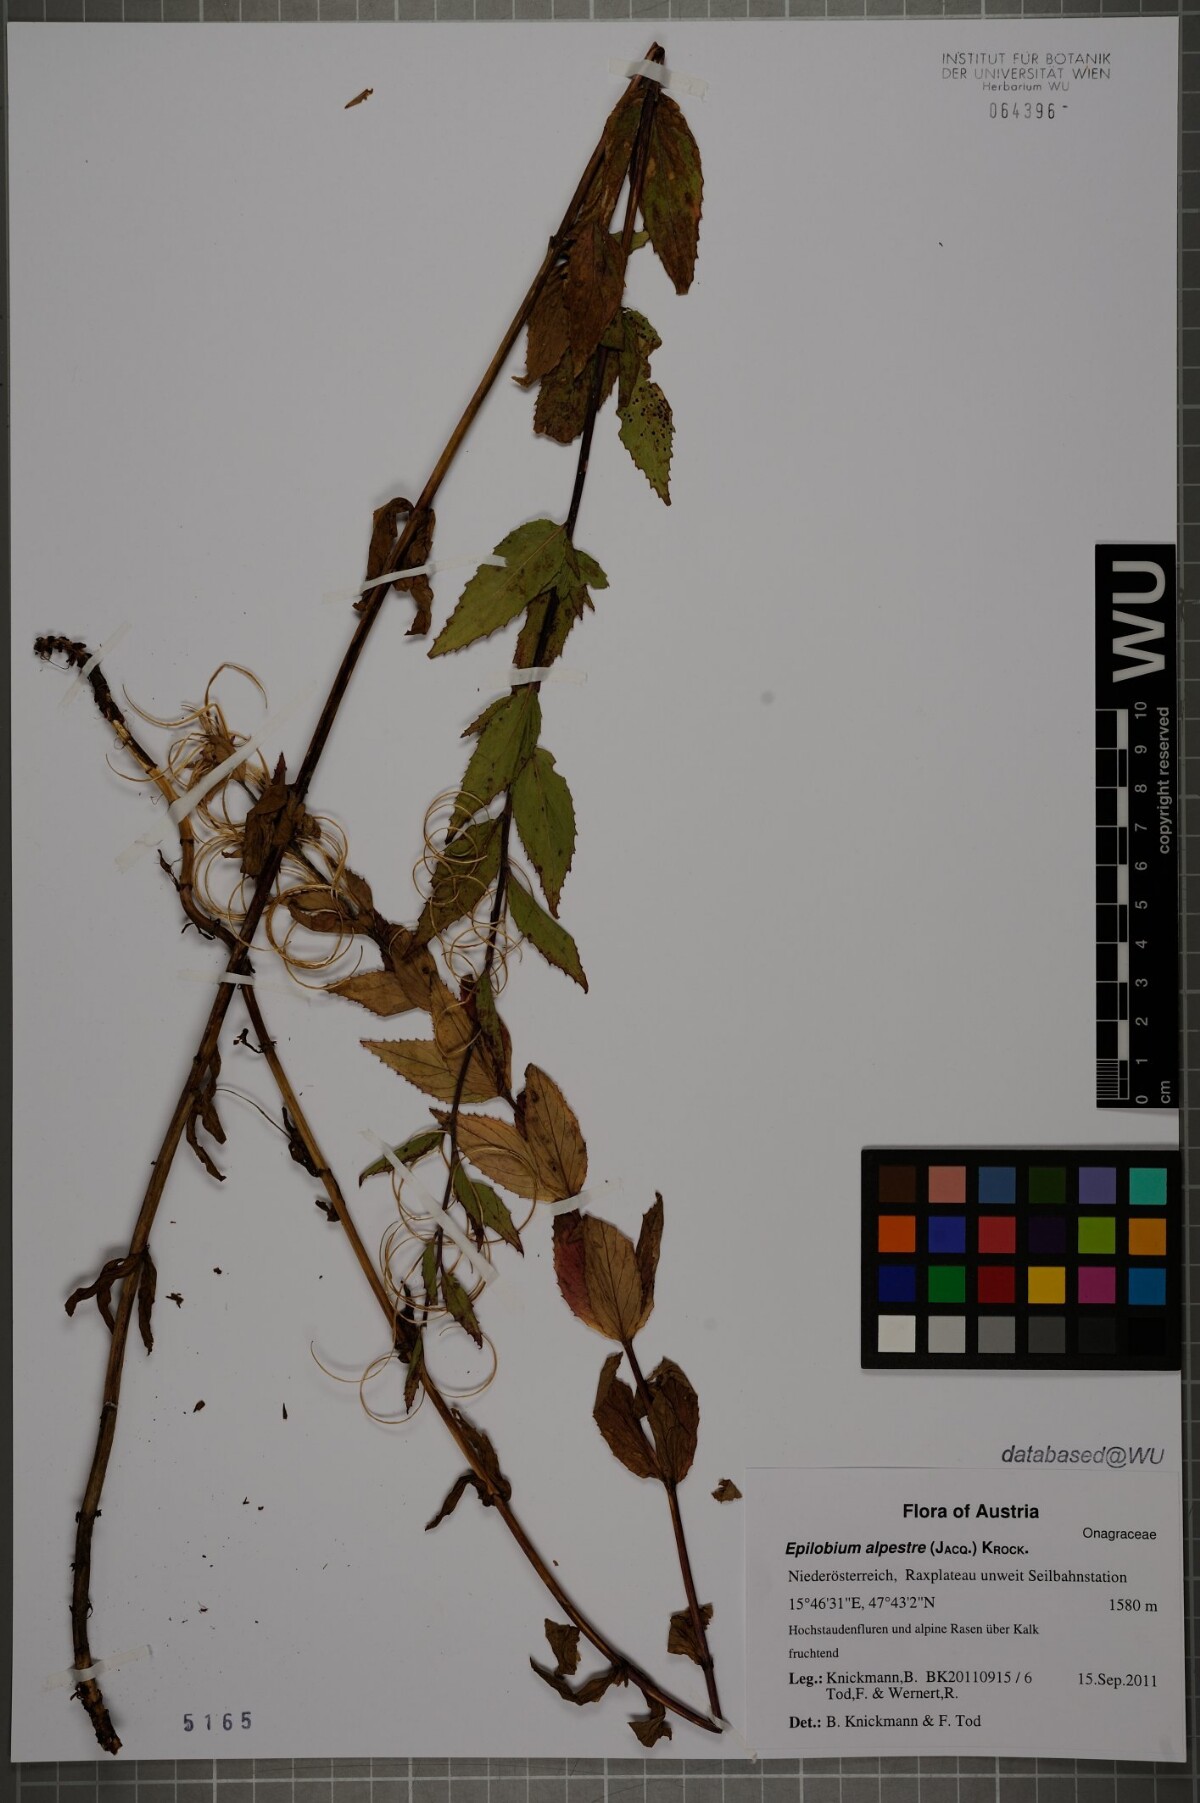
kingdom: Plantae
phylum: Tracheophyta
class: Magnoliopsida
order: Myrtales
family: Onagraceae
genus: Epilobium
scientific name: Epilobium alpestre
